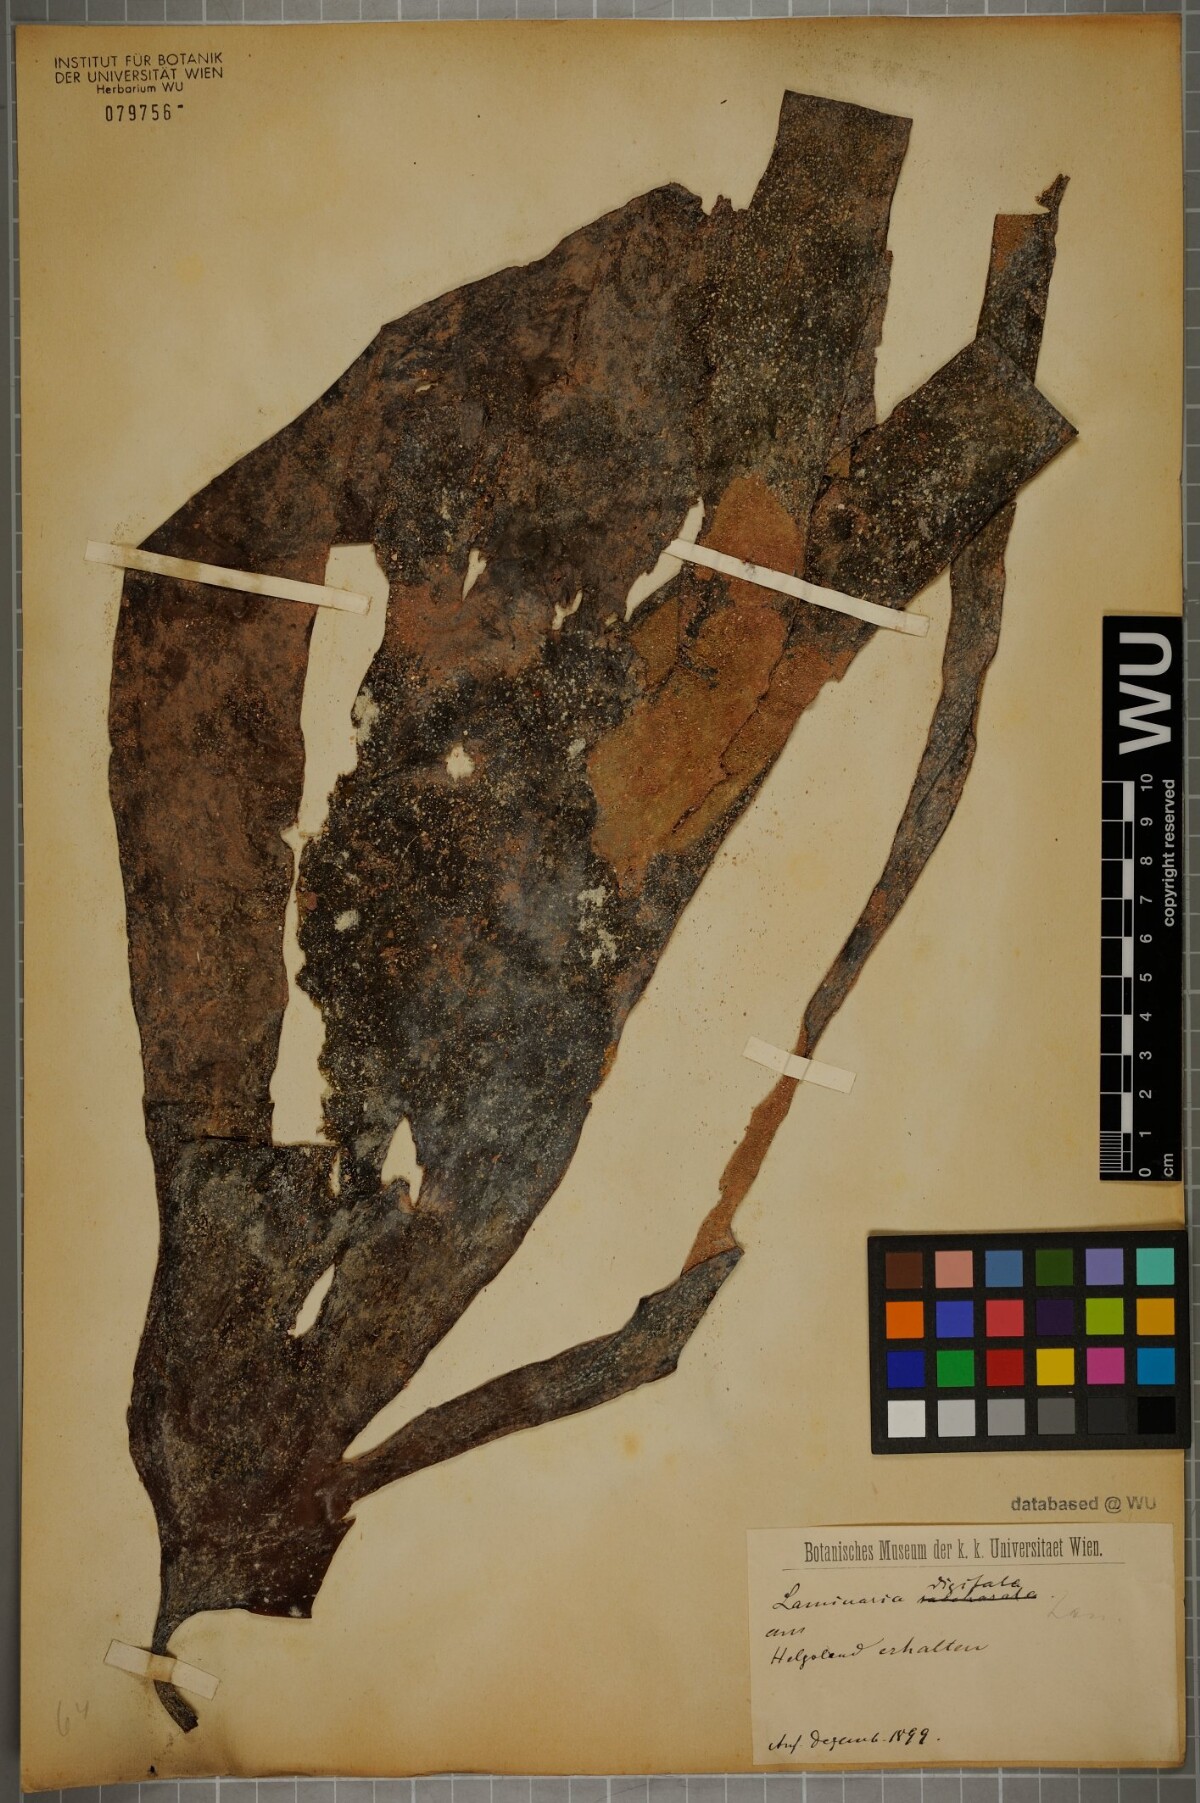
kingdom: Chromista
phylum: Ochrophyta
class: Phaeophyceae
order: Laminariales
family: Laminariaceae
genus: Laminaria
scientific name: Laminaria digitata
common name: Oarweed
